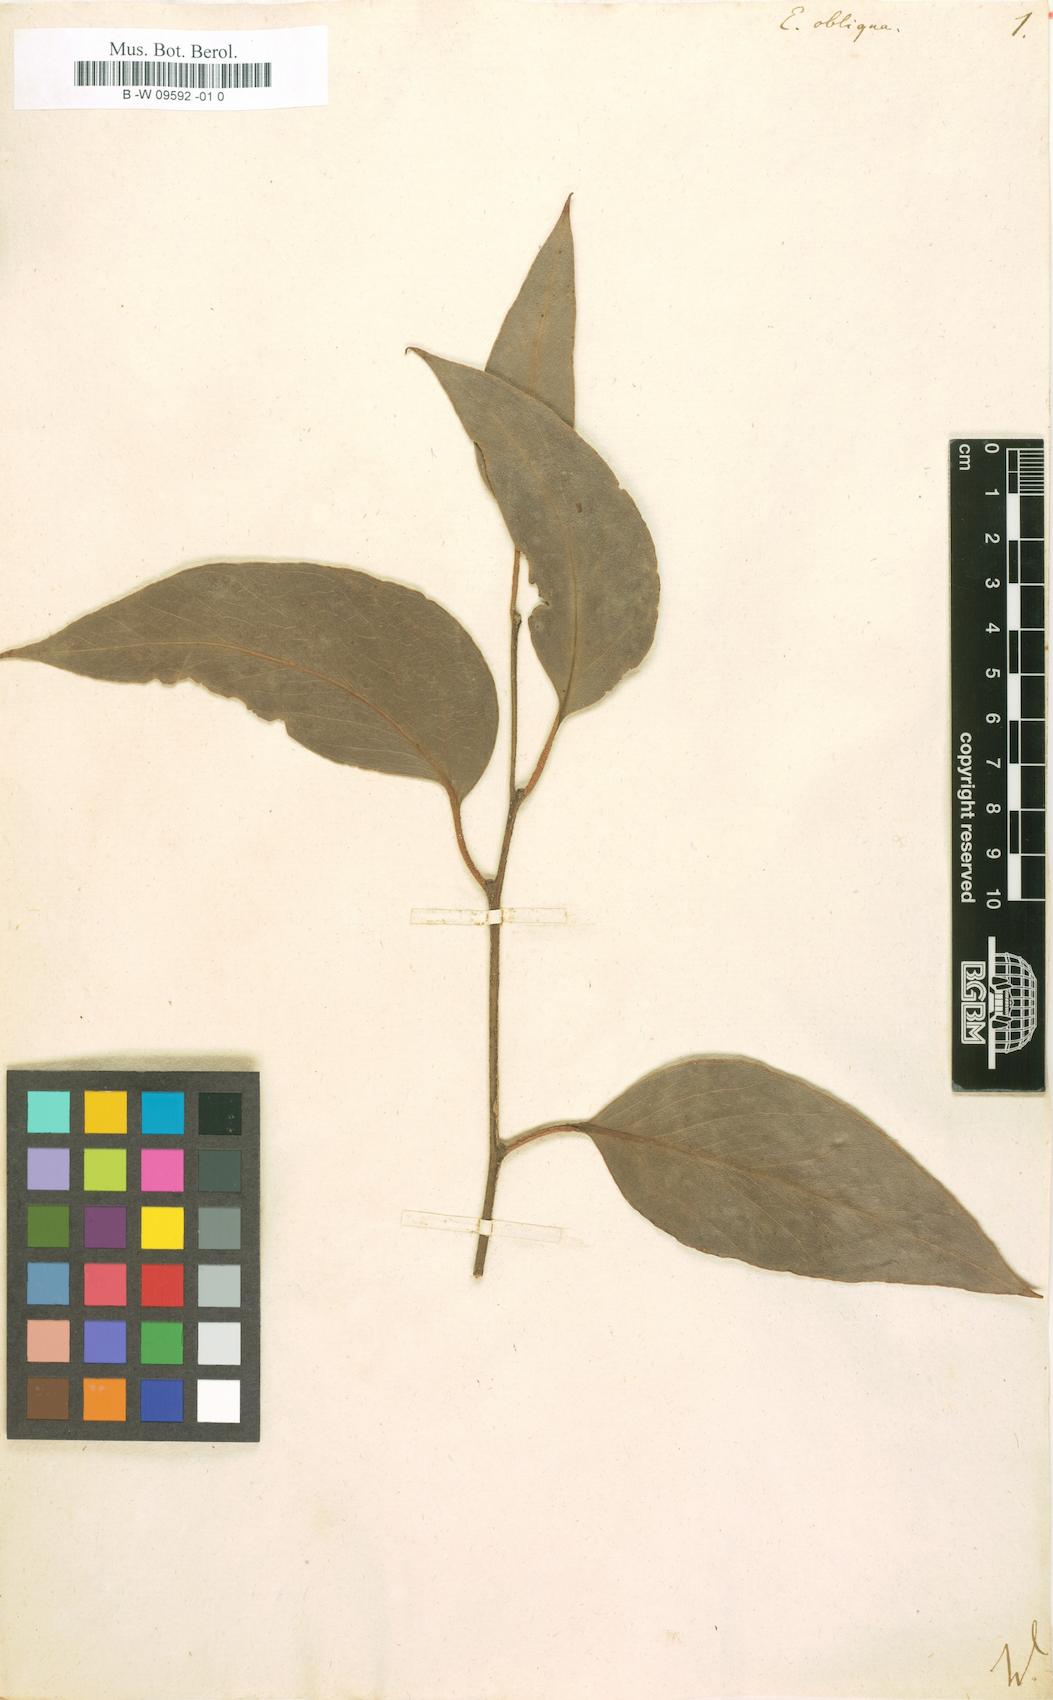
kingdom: Plantae
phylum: Tracheophyta
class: Magnoliopsida
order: Myrtales
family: Myrtaceae
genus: Eucalyptus
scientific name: Eucalyptus obliqua
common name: Messmate stringybark
